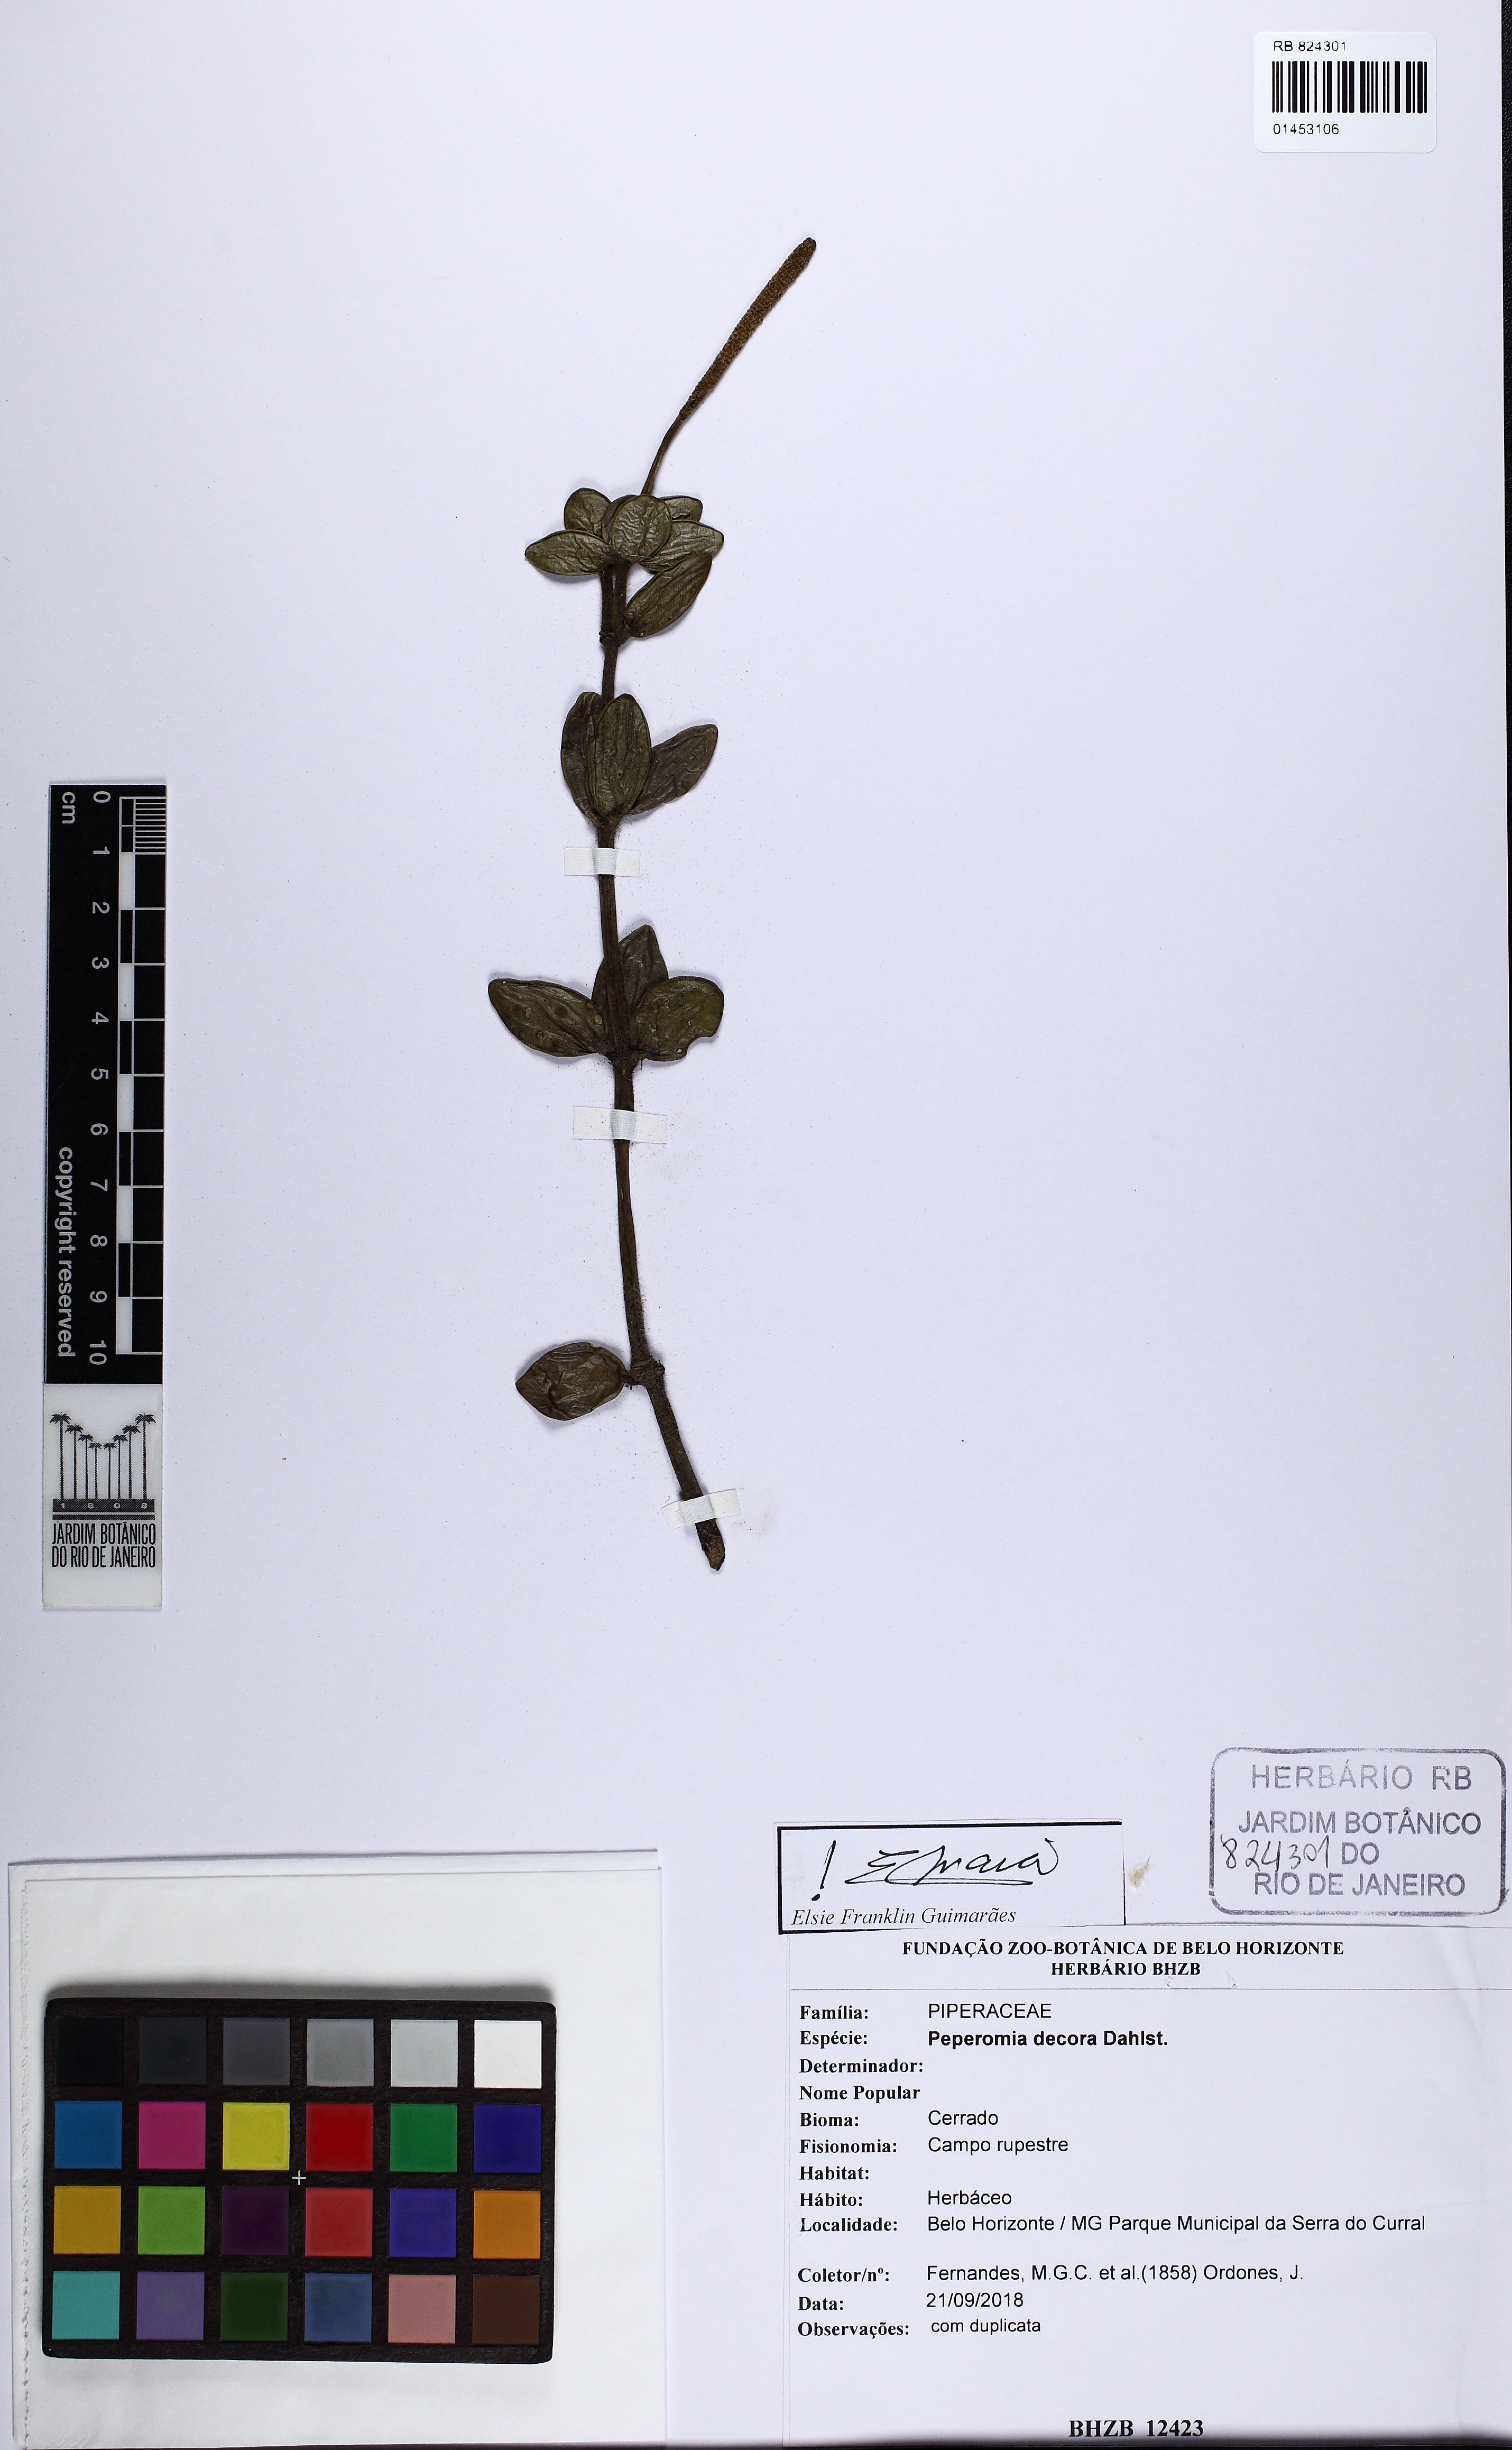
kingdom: Plantae
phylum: Tracheophyta
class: Magnoliopsida
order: Piperales
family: Piperaceae
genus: Peperomia
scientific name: Peperomia decora
